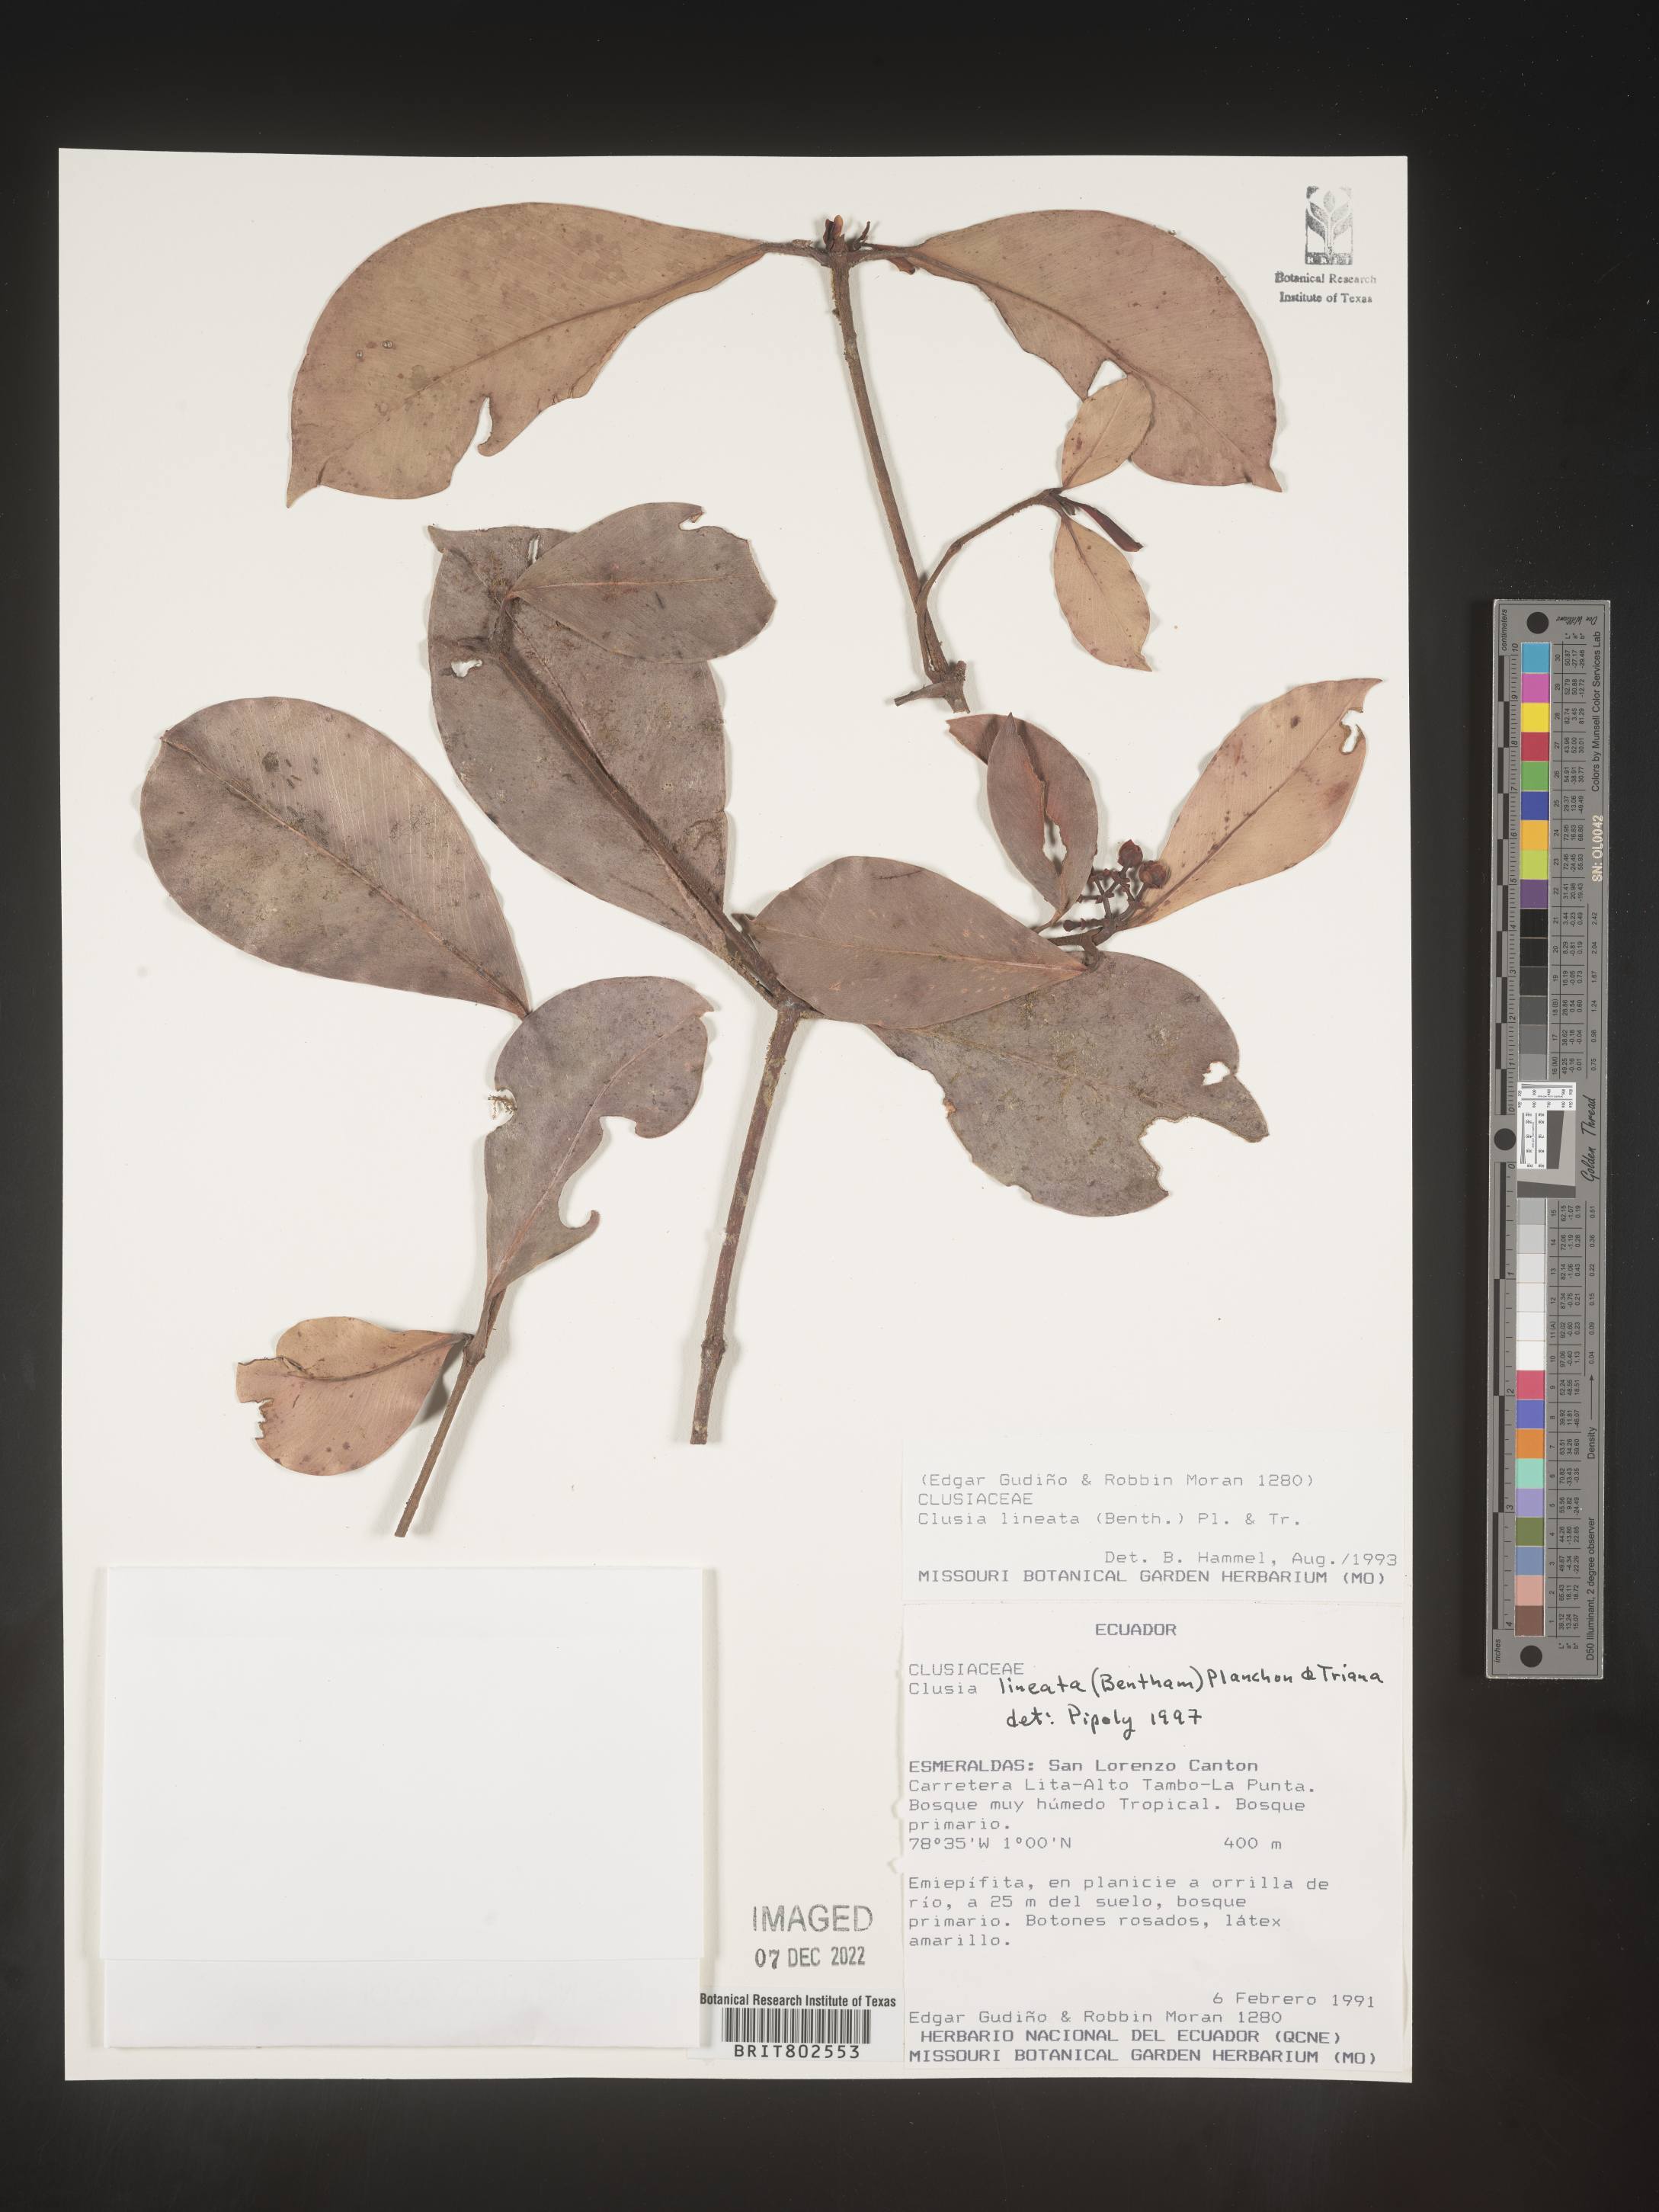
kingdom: Plantae
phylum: Tracheophyta
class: Magnoliopsida
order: Malpighiales
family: Clusiaceae
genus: Clusia
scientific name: Clusia loranthacea
